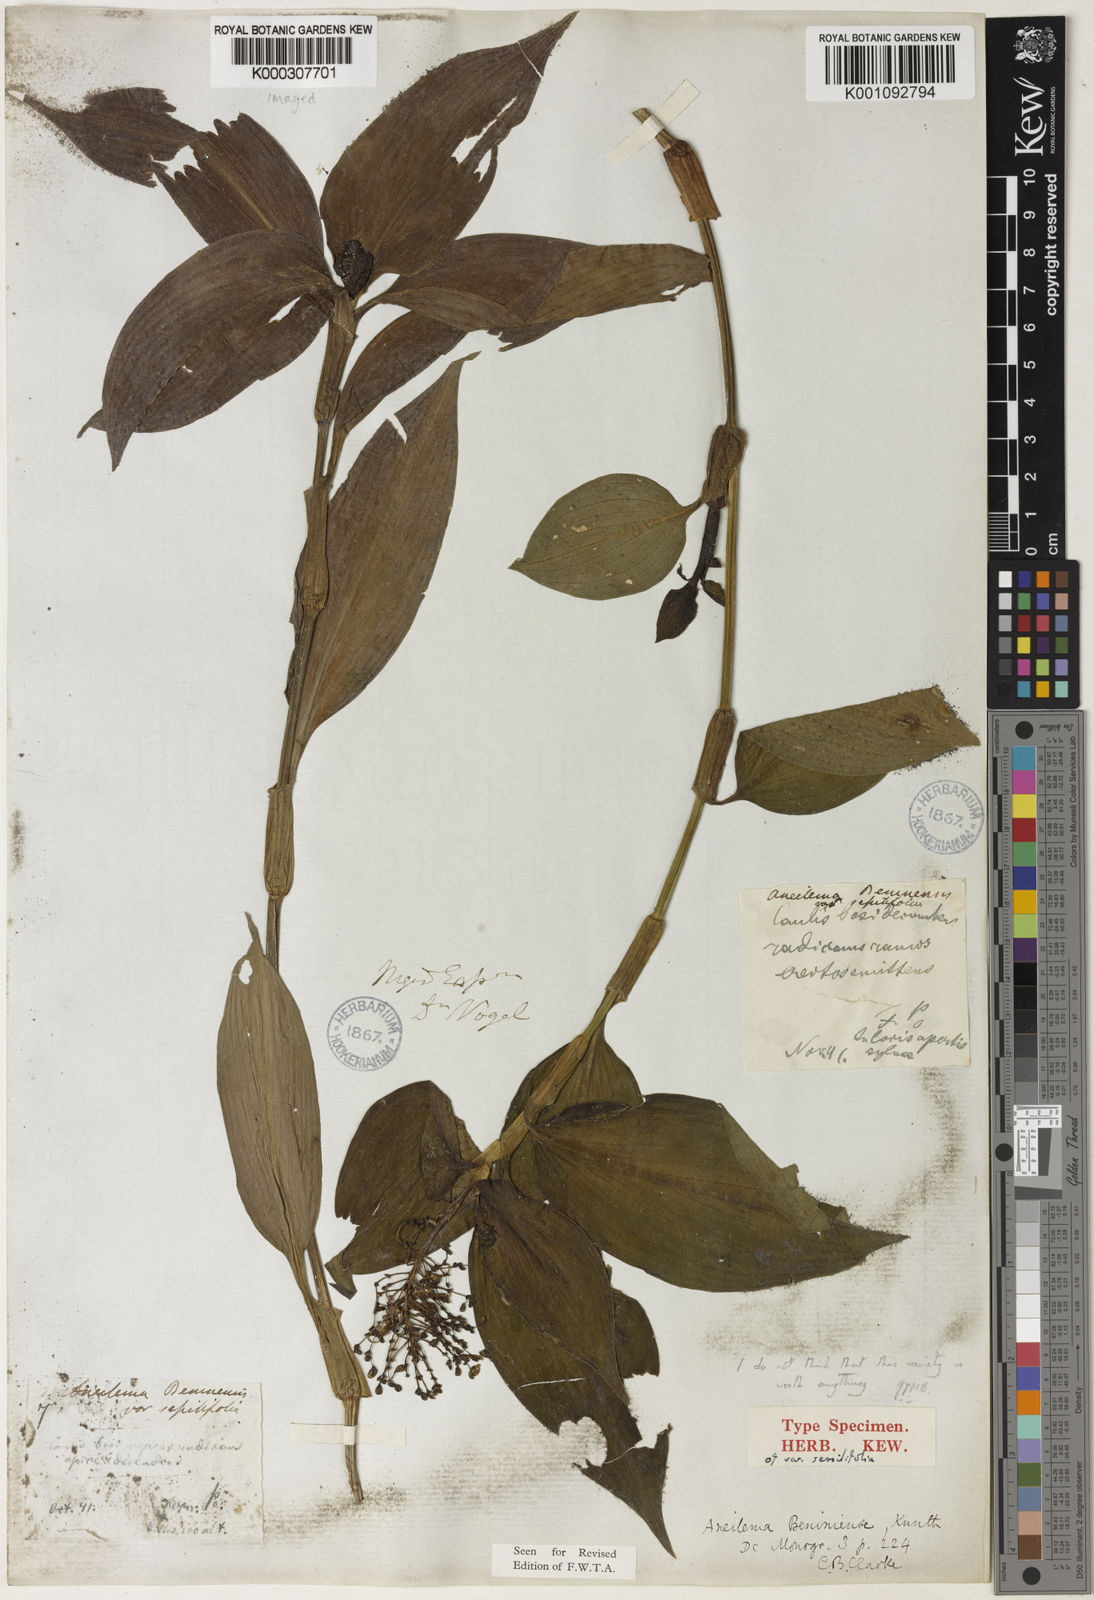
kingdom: Plantae
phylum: Tracheophyta
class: Liliopsida
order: Commelinales
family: Commelinaceae
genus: Aneilema
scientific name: Aneilema beniniense
